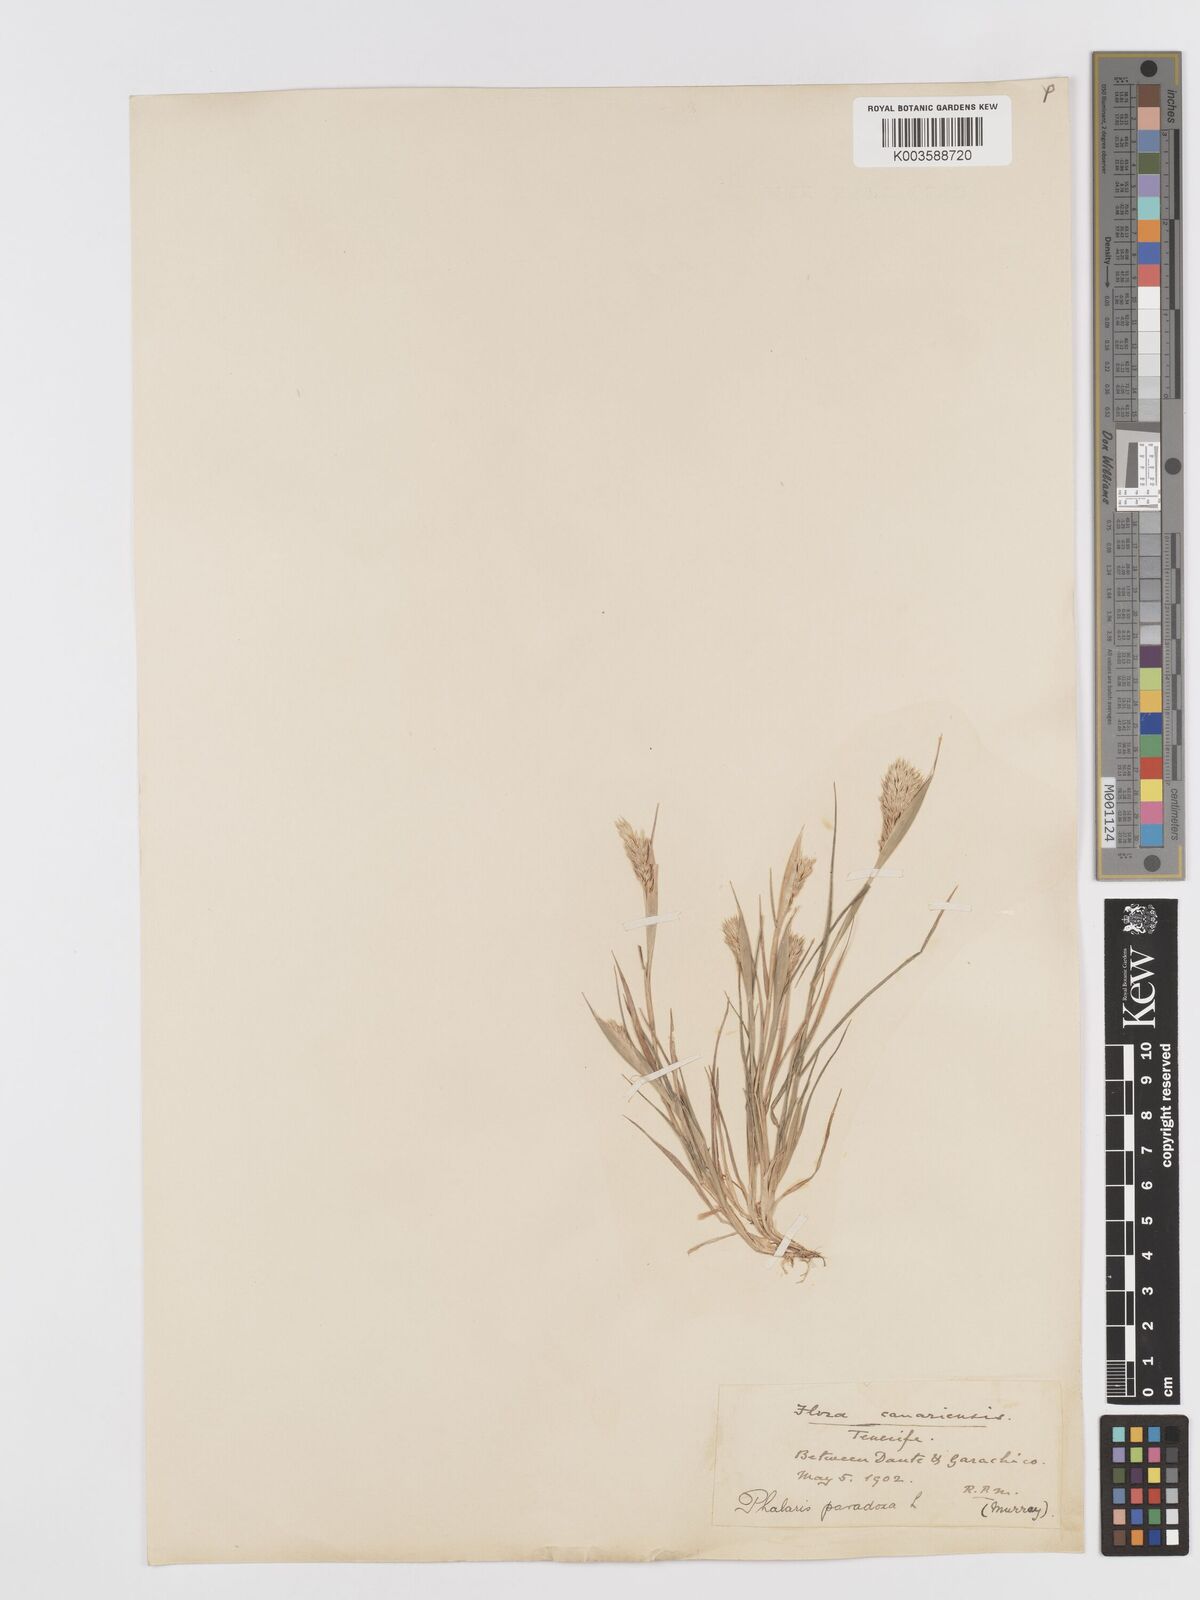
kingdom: Plantae
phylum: Tracheophyta
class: Liliopsida
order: Poales
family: Poaceae
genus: Phalaris
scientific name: Phalaris paradoxa
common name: Awned canary-grass
